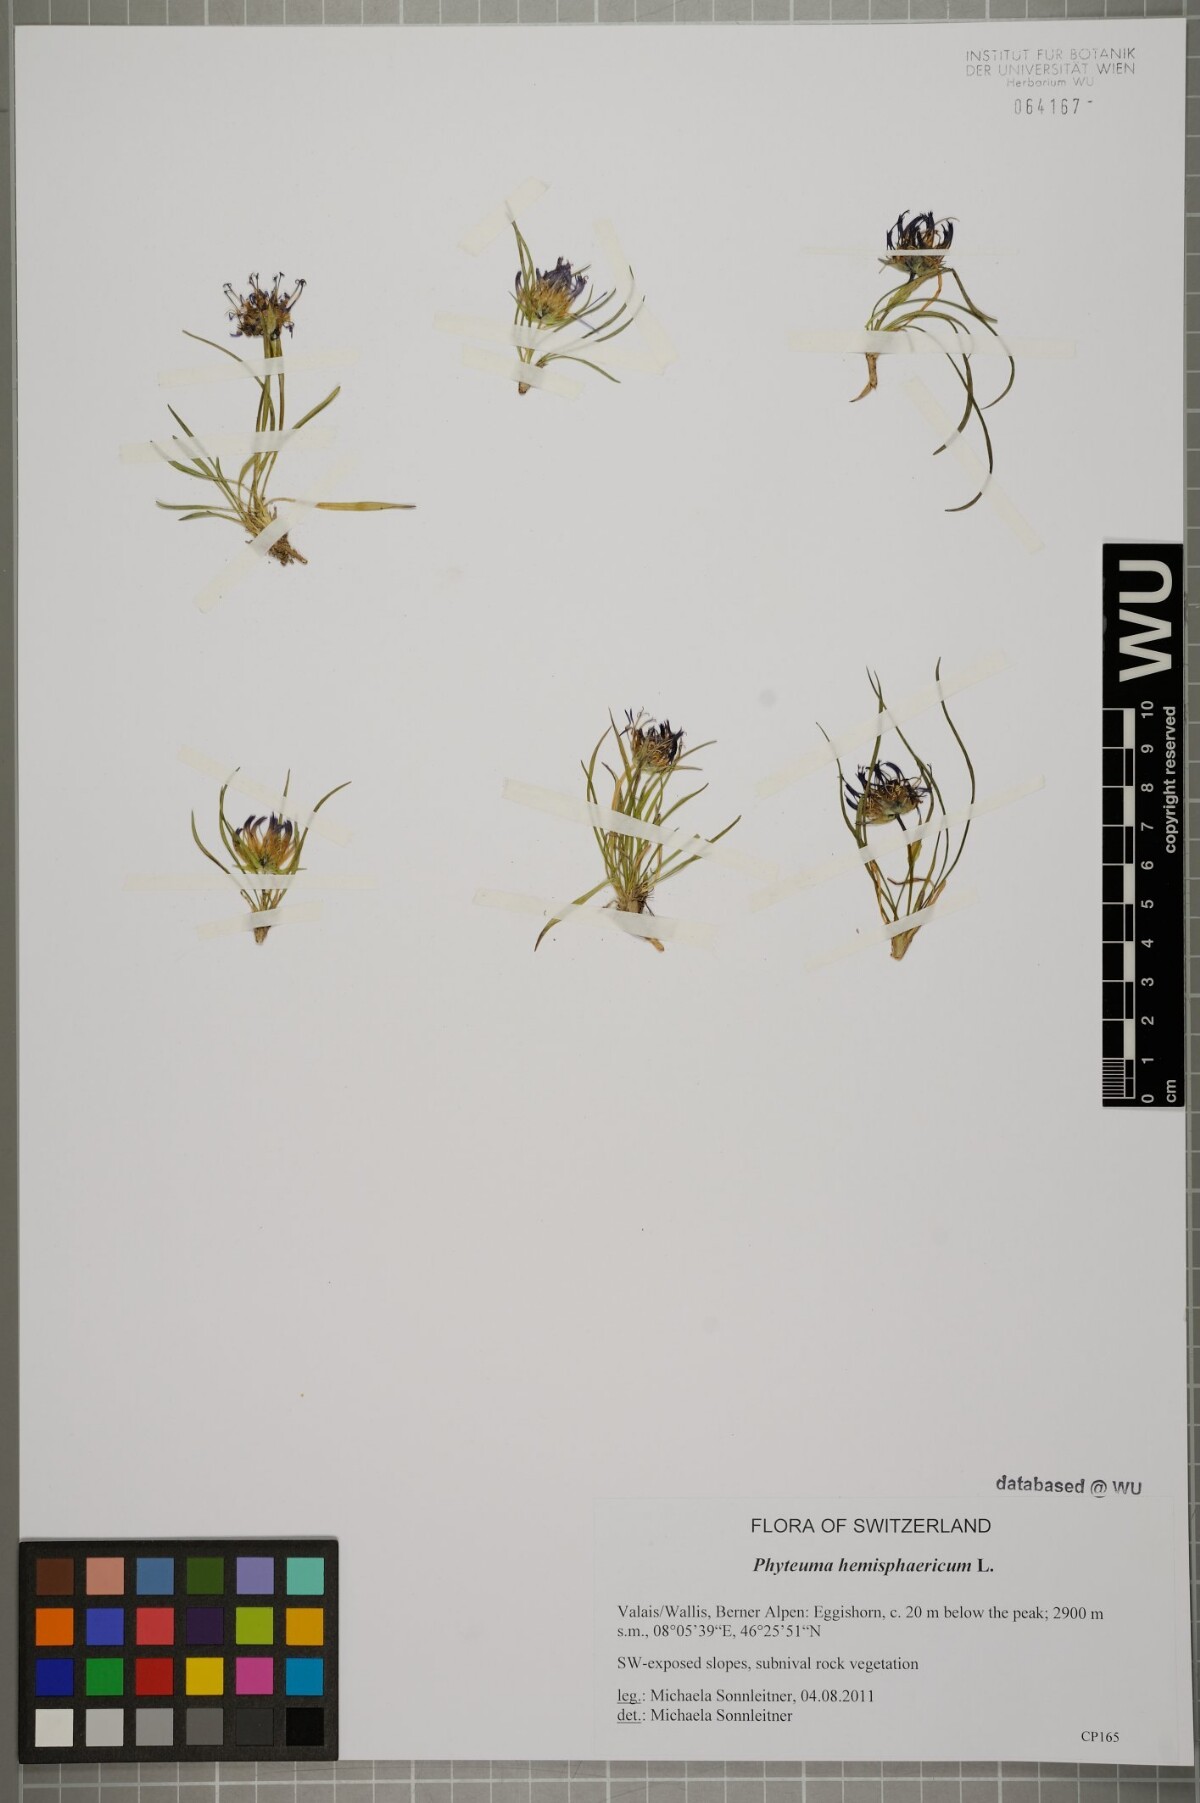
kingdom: Plantae
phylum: Tracheophyta
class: Magnoliopsida
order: Asterales
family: Campanulaceae
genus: Phyteuma
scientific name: Phyteuma hemisphaericum
